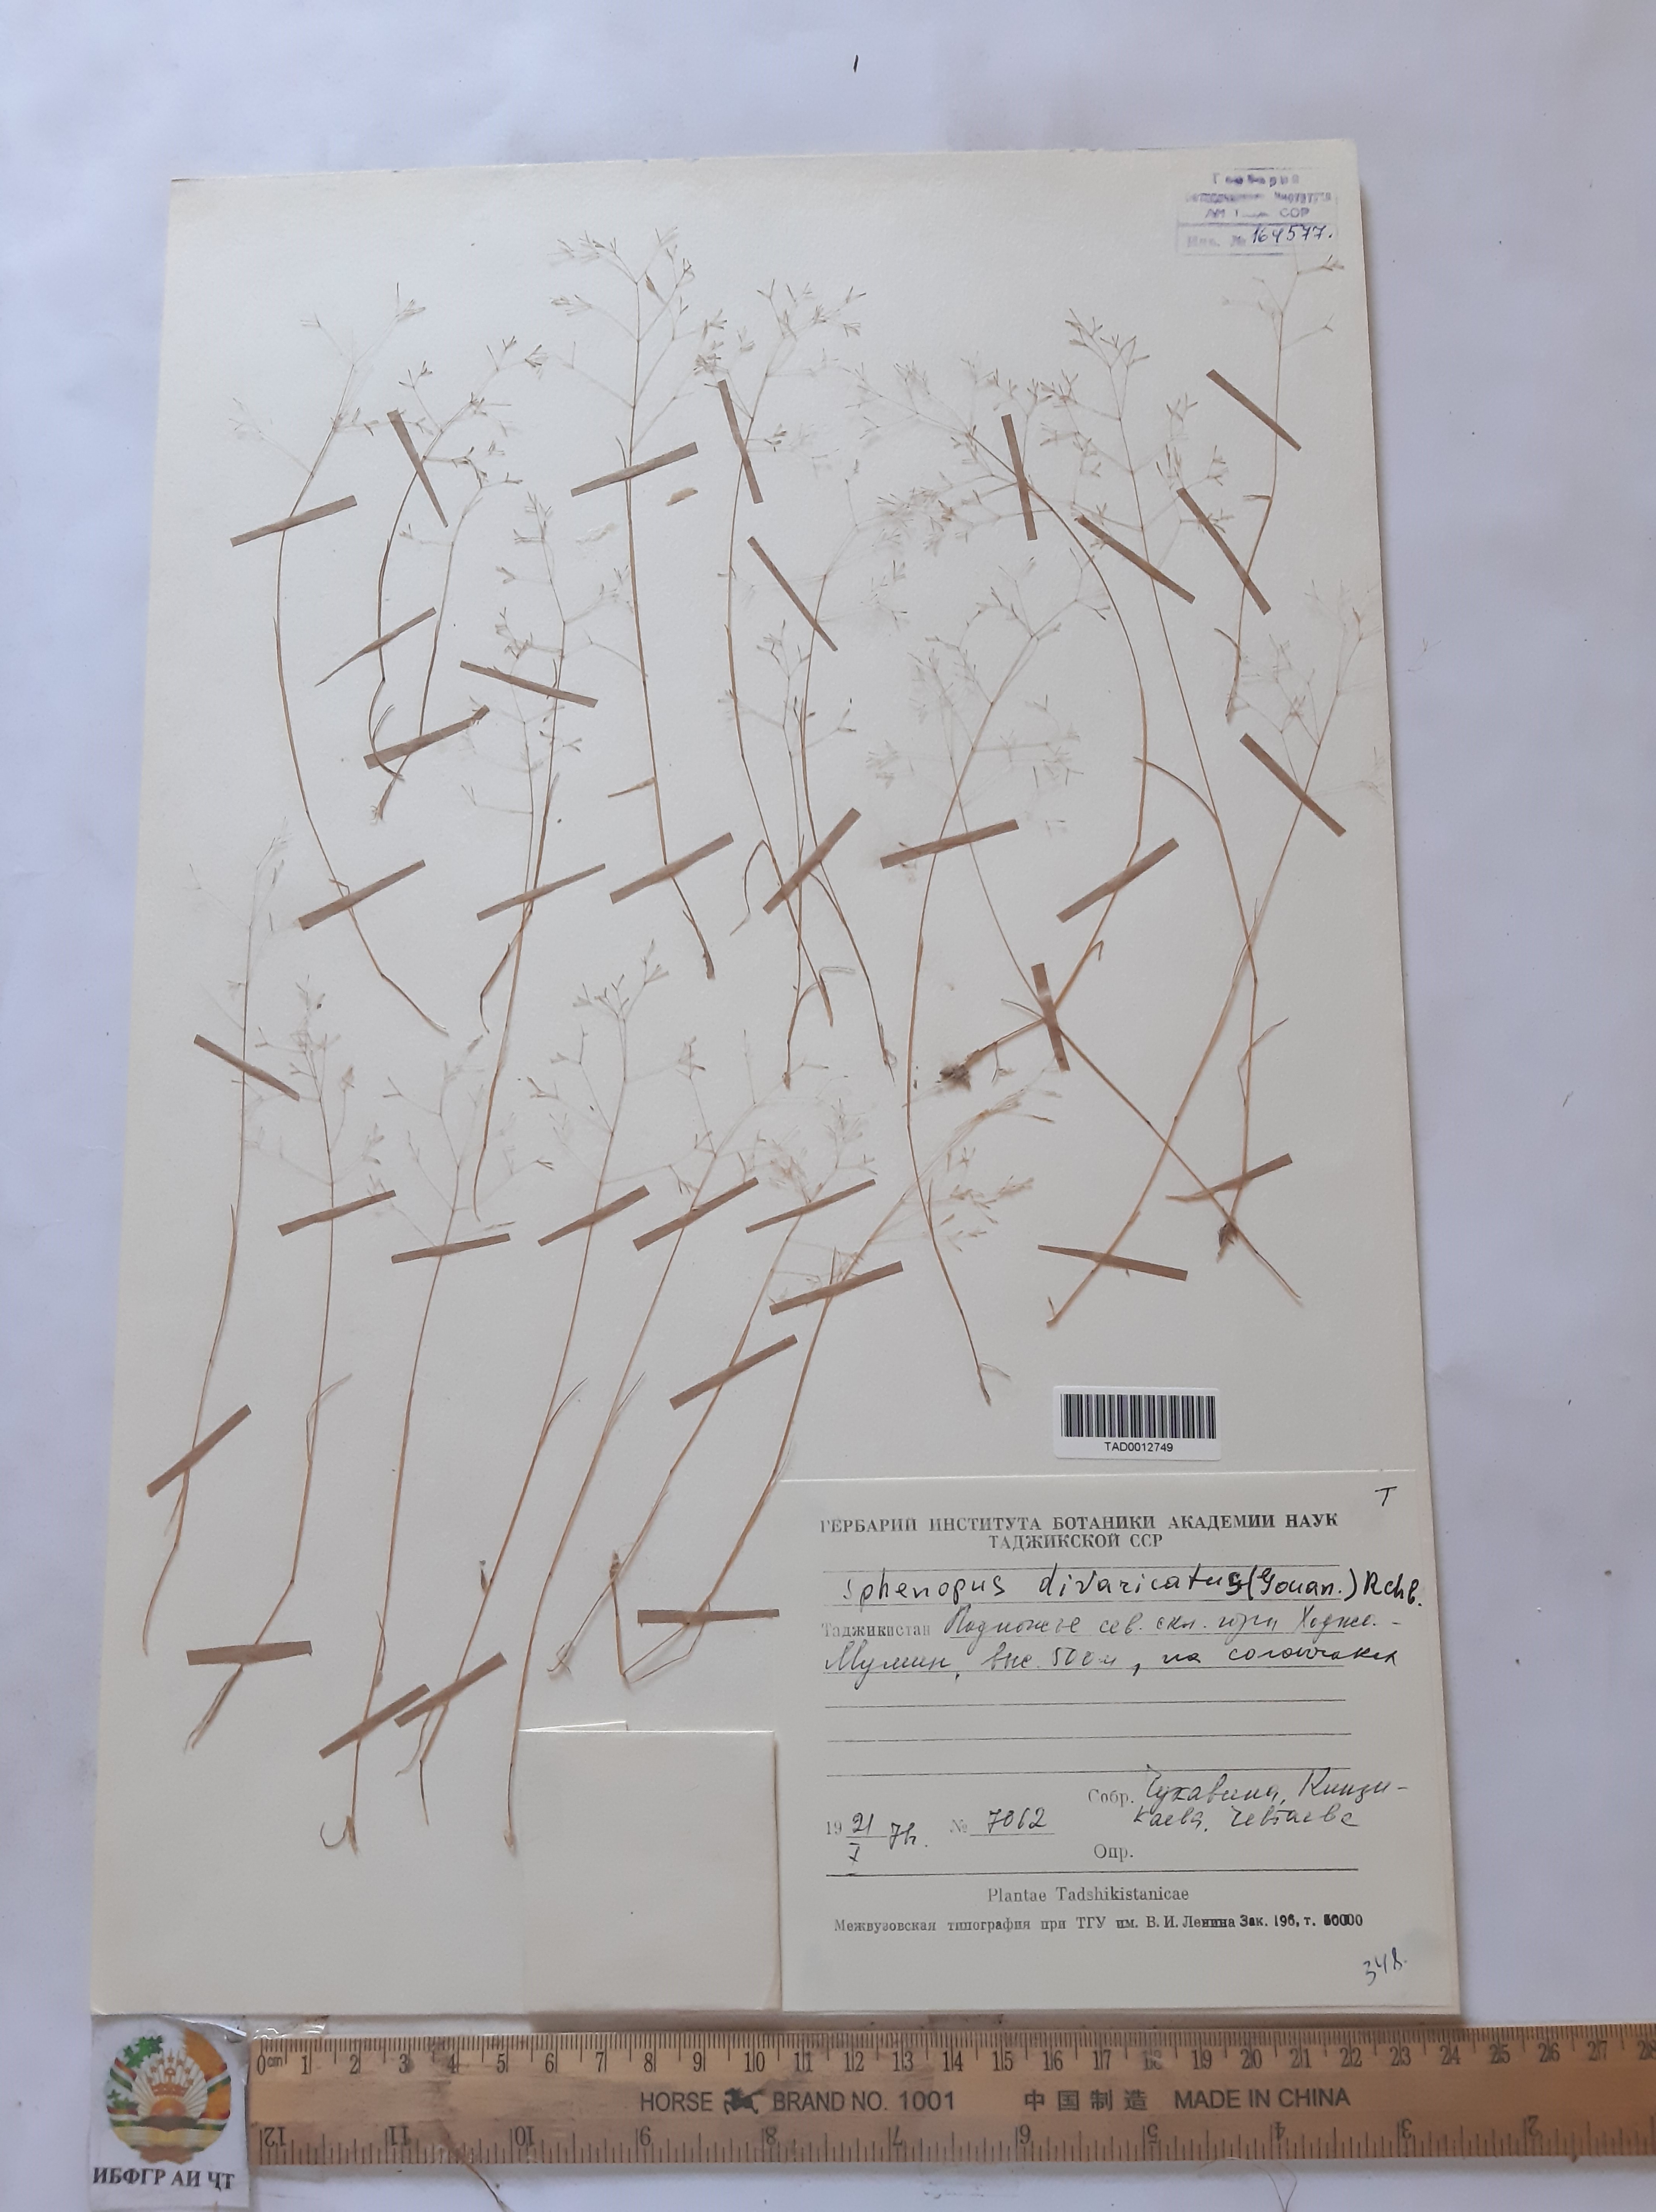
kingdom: Plantae
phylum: Tracheophyta
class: Liliopsida
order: Poales
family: Poaceae
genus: Sphenopus
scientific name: Sphenopus divaricatus
